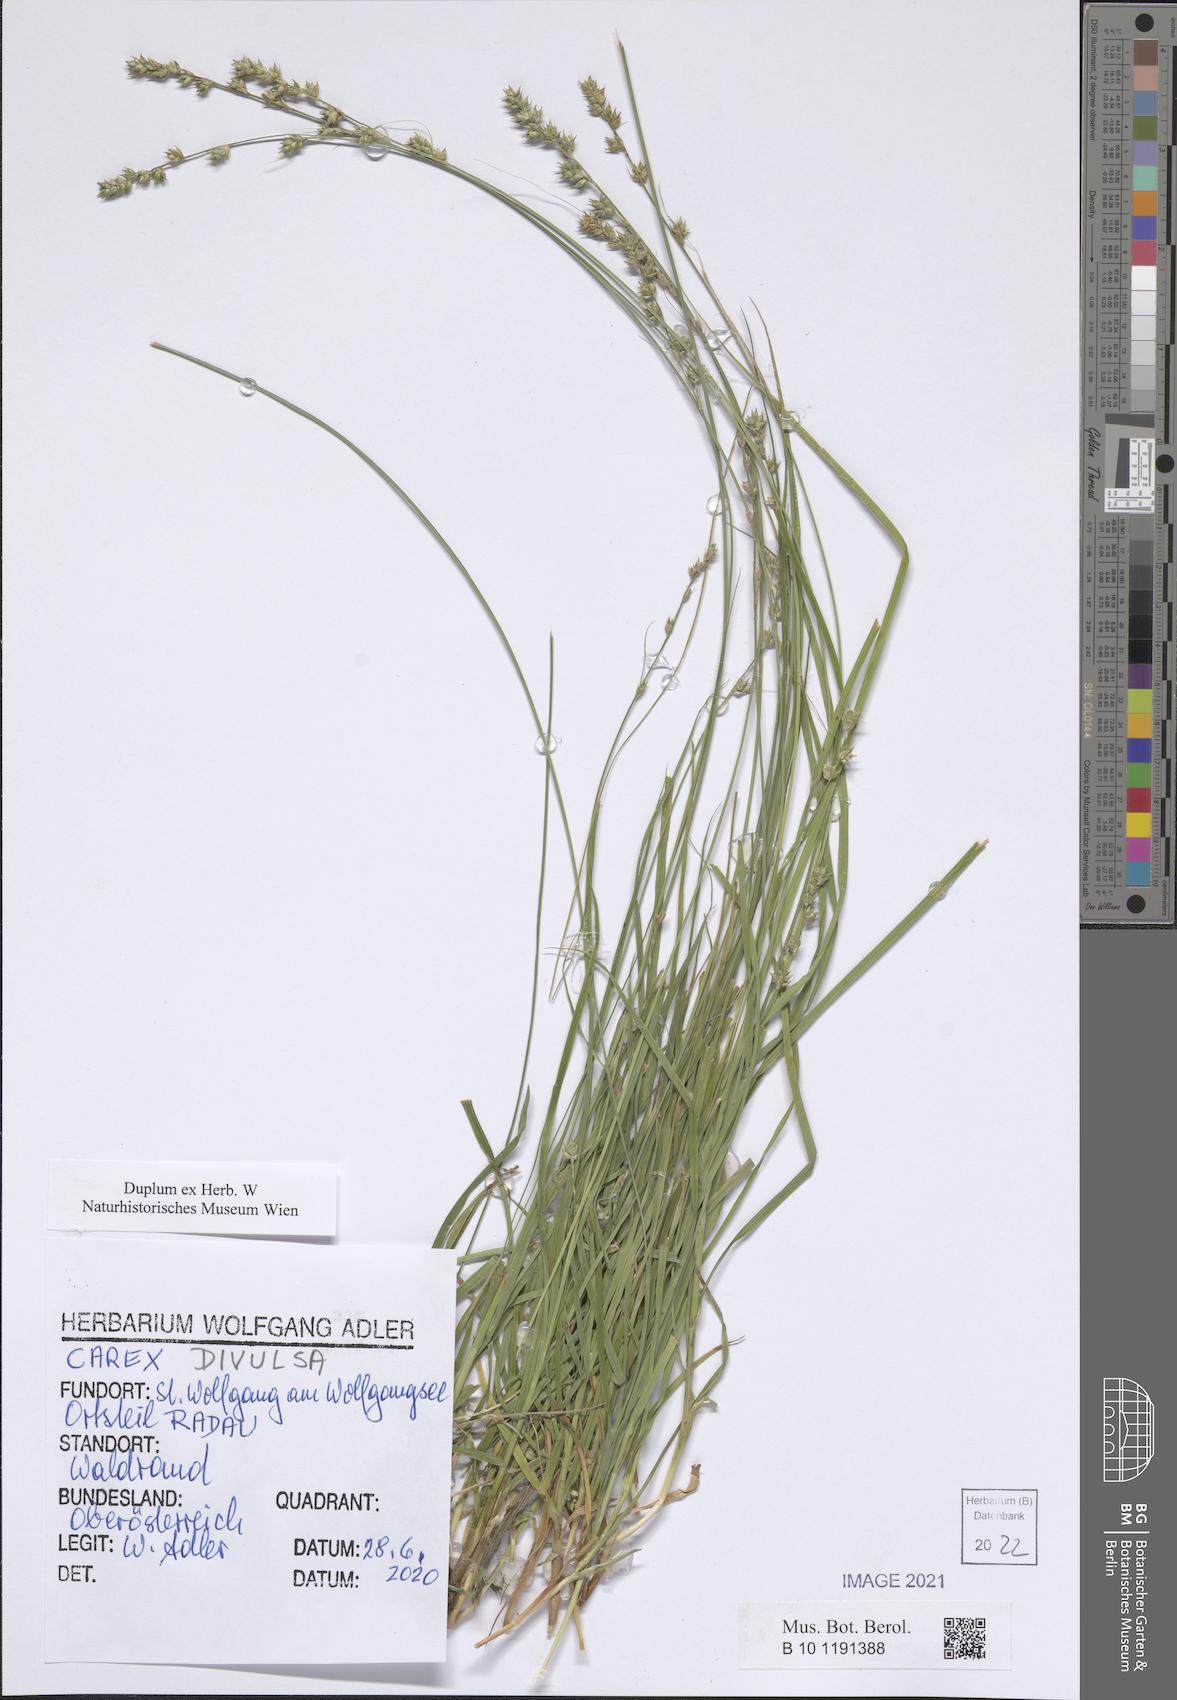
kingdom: Plantae
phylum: Tracheophyta
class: Liliopsida
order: Poales
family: Cyperaceae
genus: Carex
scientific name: Carex divulsa
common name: Grassland sedge
